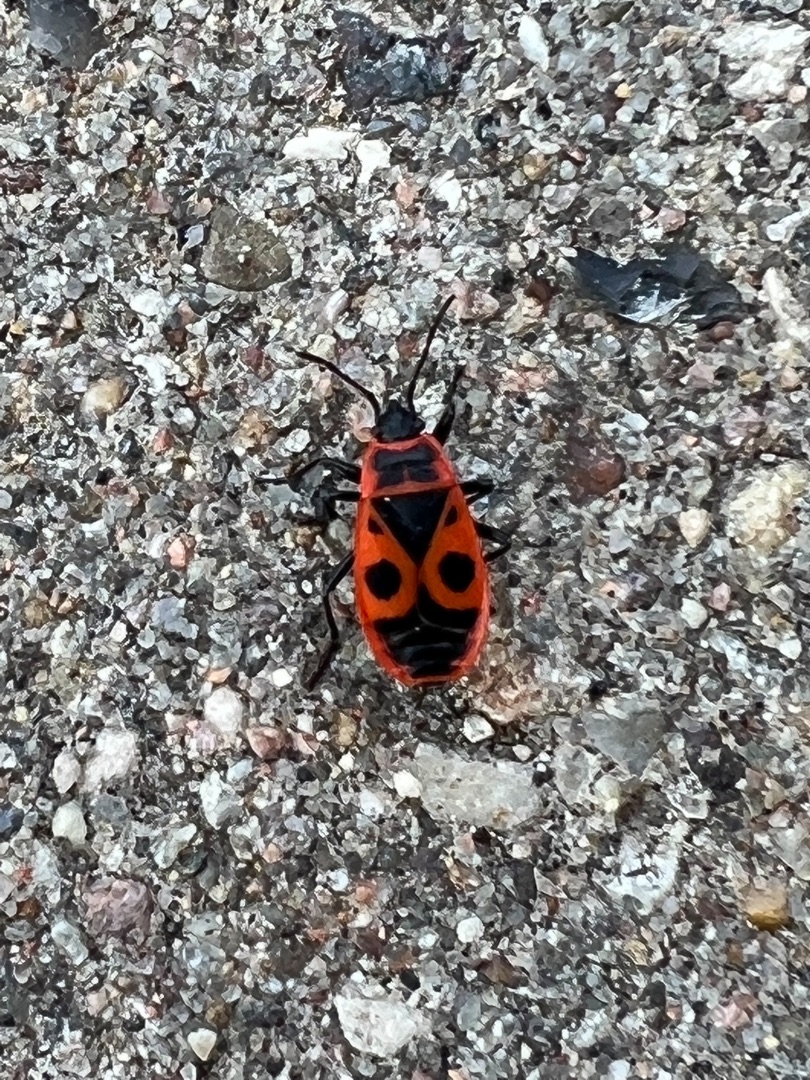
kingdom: Animalia
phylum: Arthropoda
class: Insecta
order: Hemiptera
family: Pyrrhocoridae
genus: Pyrrhocoris
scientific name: Pyrrhocoris apterus
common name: Ildtæge
